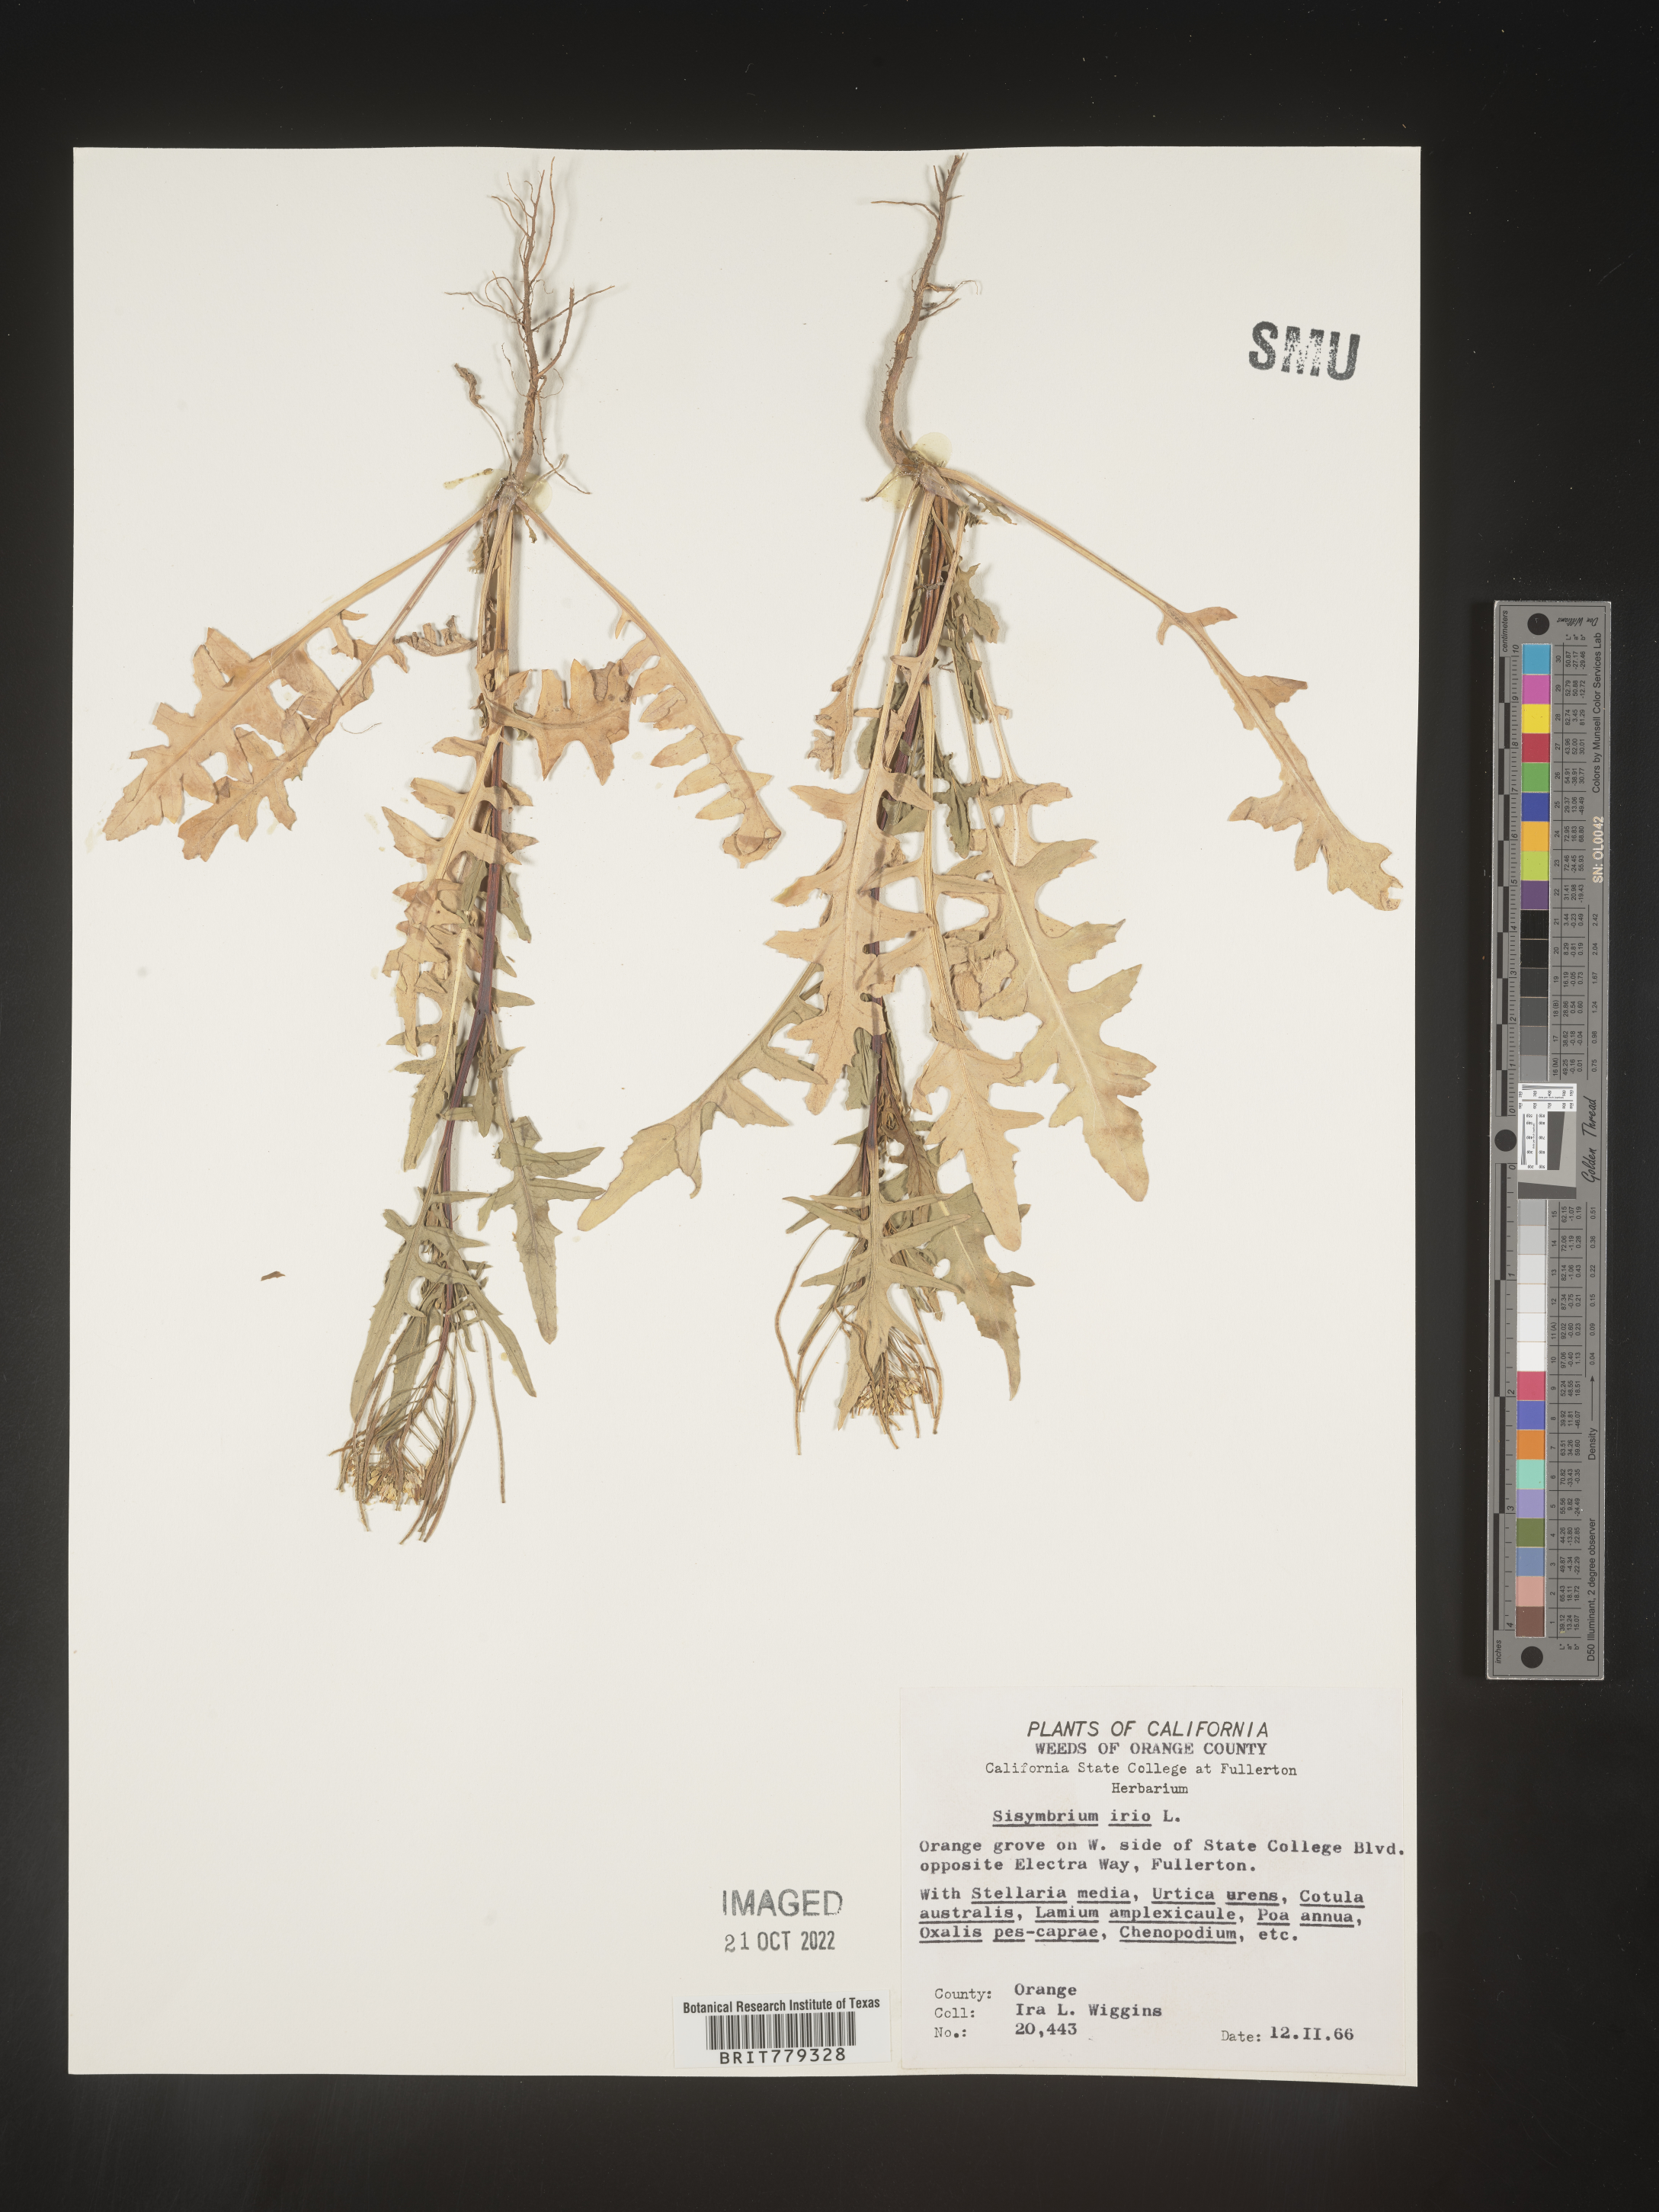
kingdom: Plantae
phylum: Tracheophyta
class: Magnoliopsida
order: Brassicales
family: Brassicaceae
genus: Sisymbrium
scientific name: Sisymbrium
